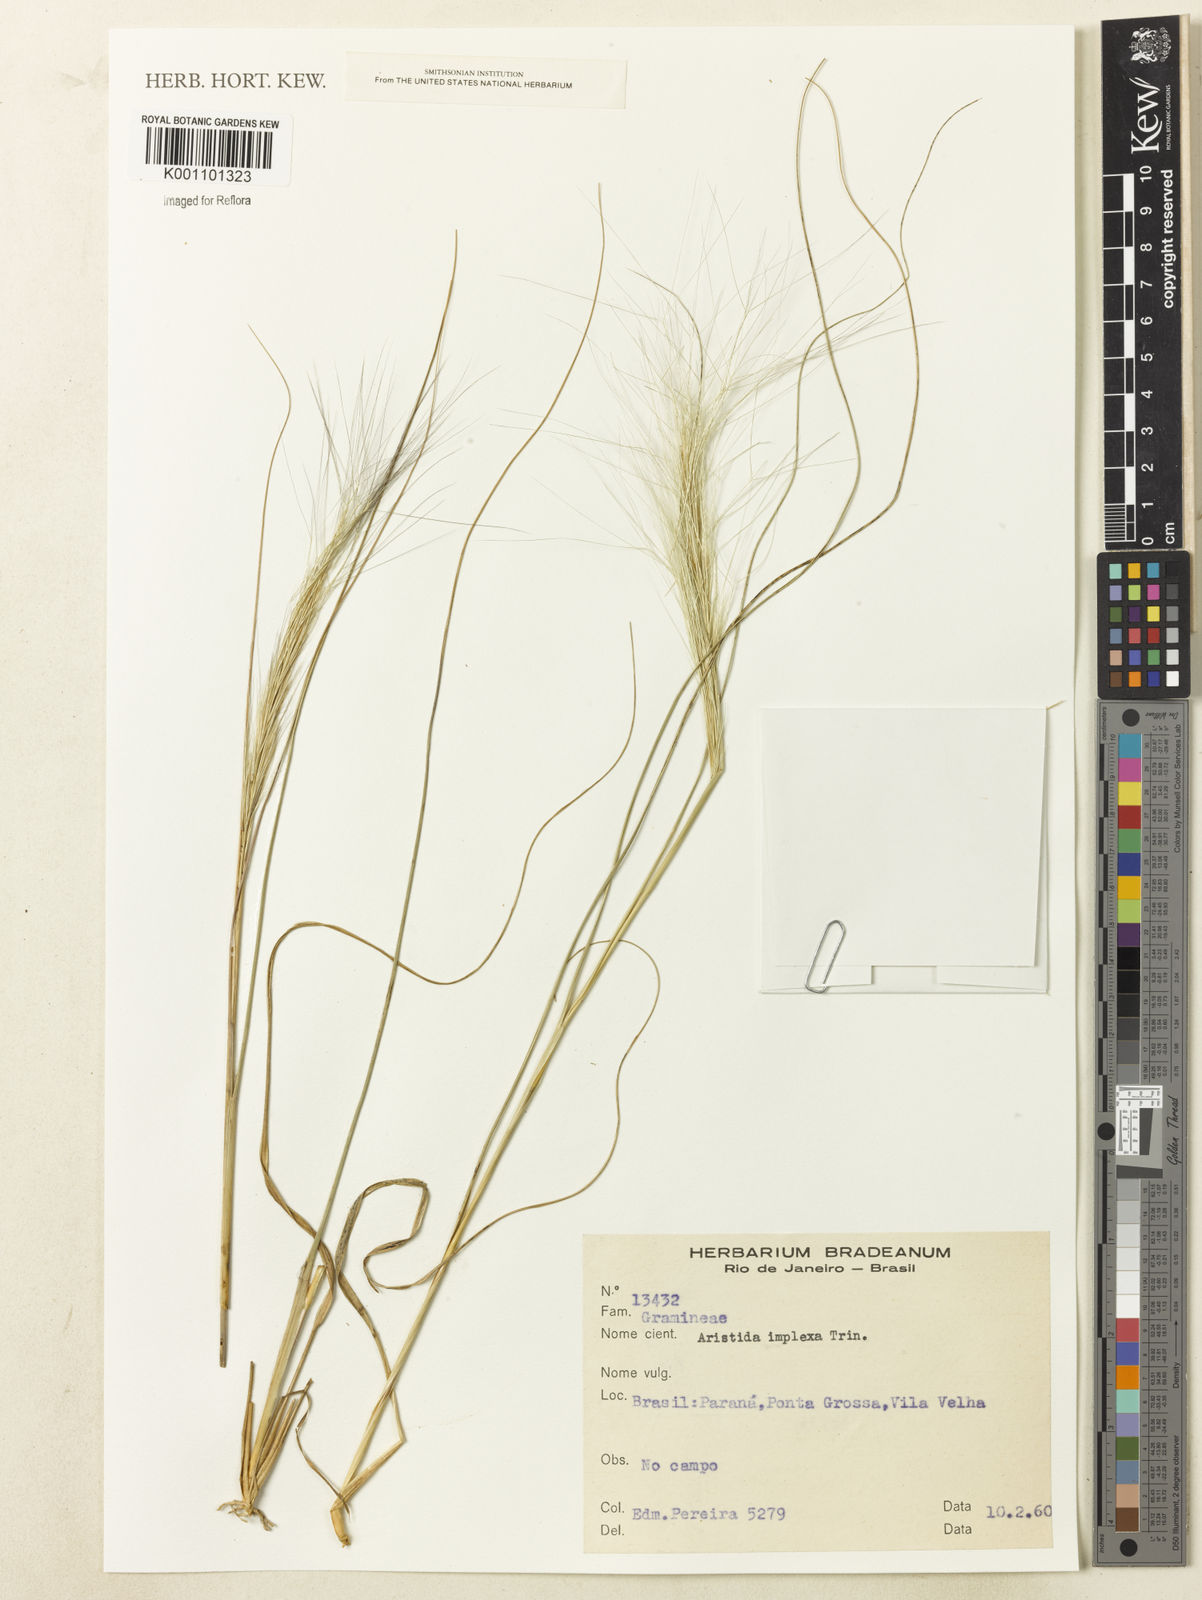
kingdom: Plantae
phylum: Tracheophyta
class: Liliopsida
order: Poales
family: Poaceae
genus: Aristida
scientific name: Aristida megapotamica
